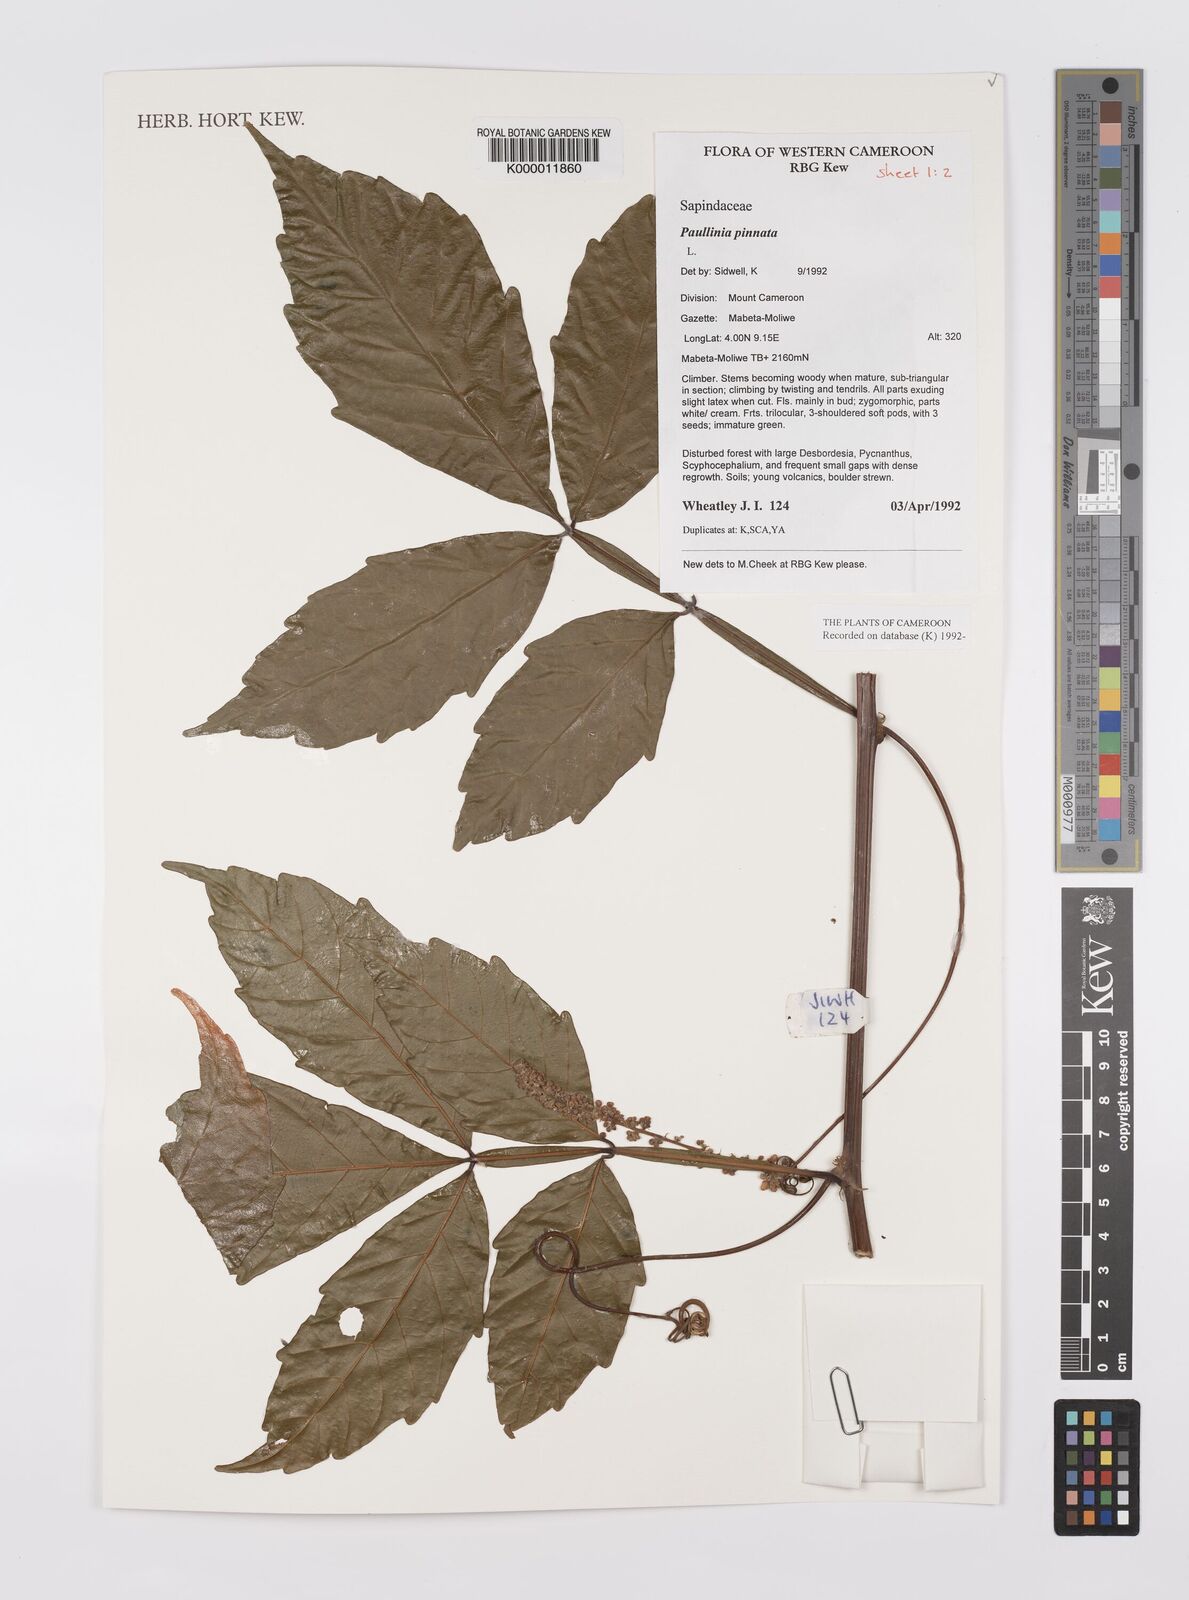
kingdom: Plantae
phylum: Tracheophyta
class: Magnoliopsida
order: Sapindales
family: Sapindaceae
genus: Paullinia
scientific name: Paullinia pinnata
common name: Barbasco
